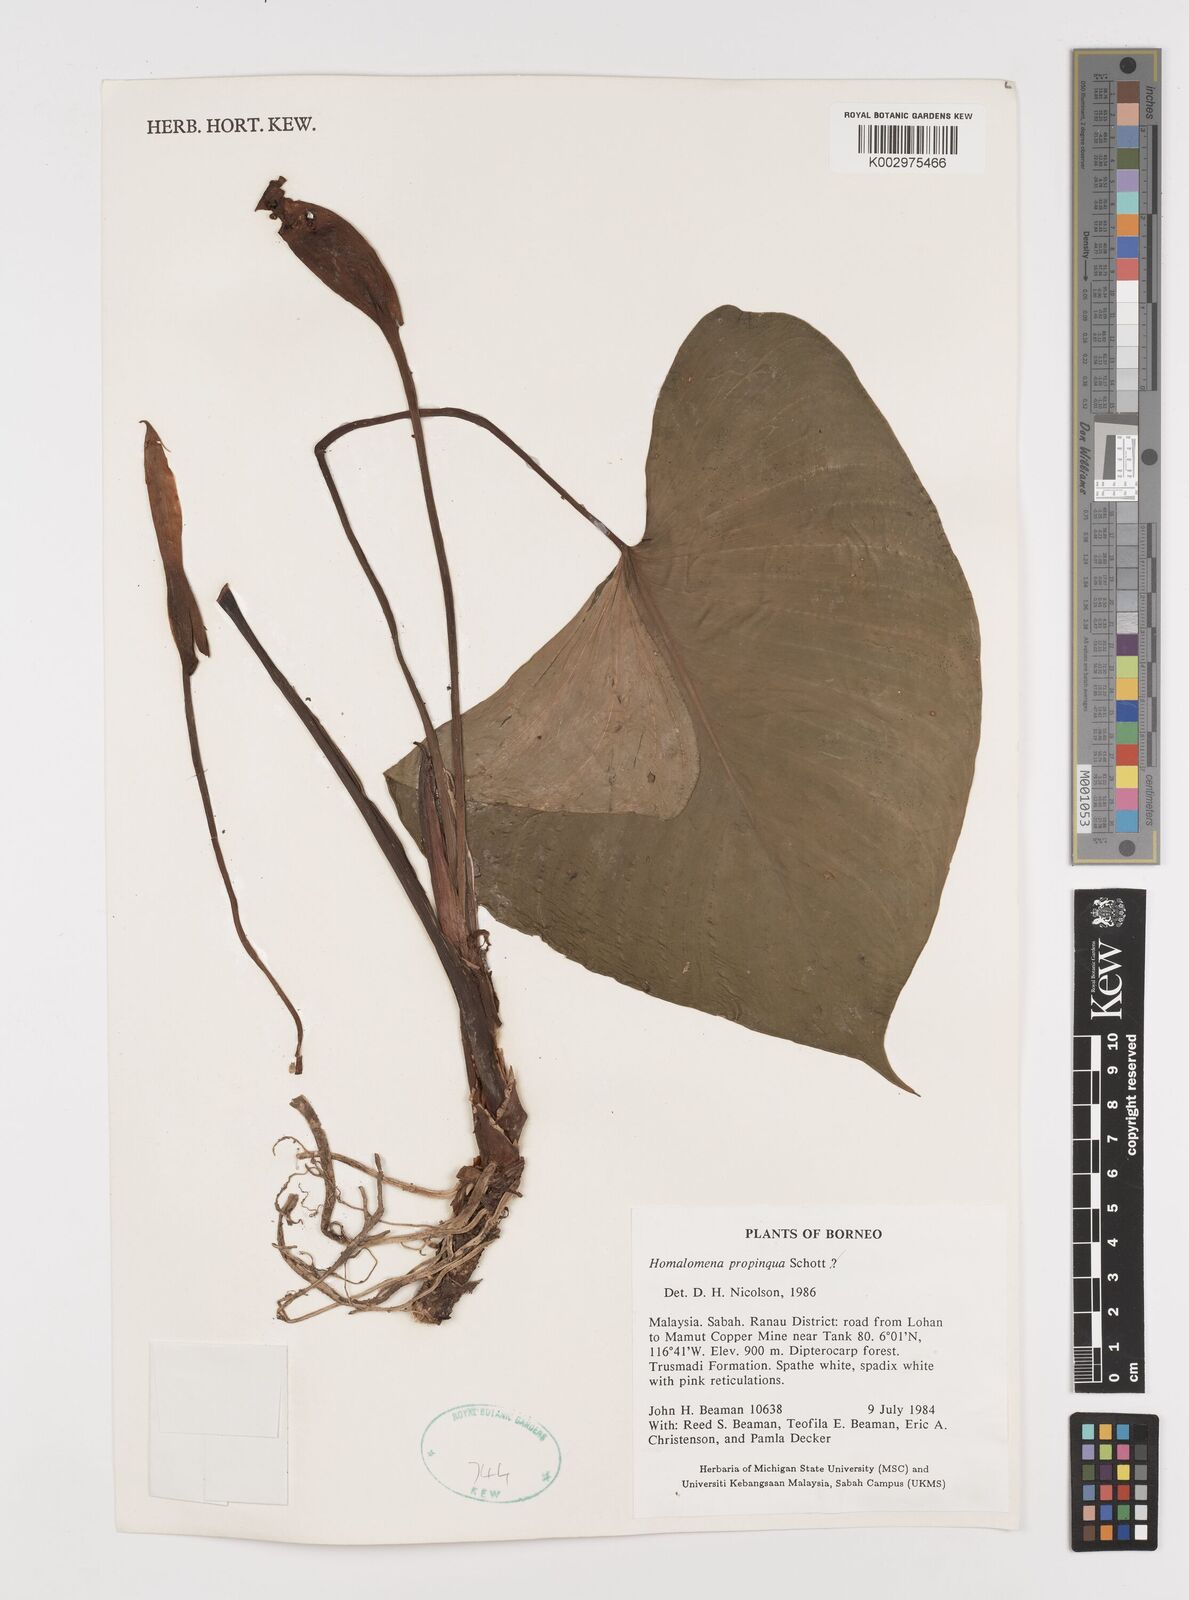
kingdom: Plantae
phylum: Tracheophyta
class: Liliopsida
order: Alismatales
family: Araceae
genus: Homalomena
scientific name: Homalomena humilis
